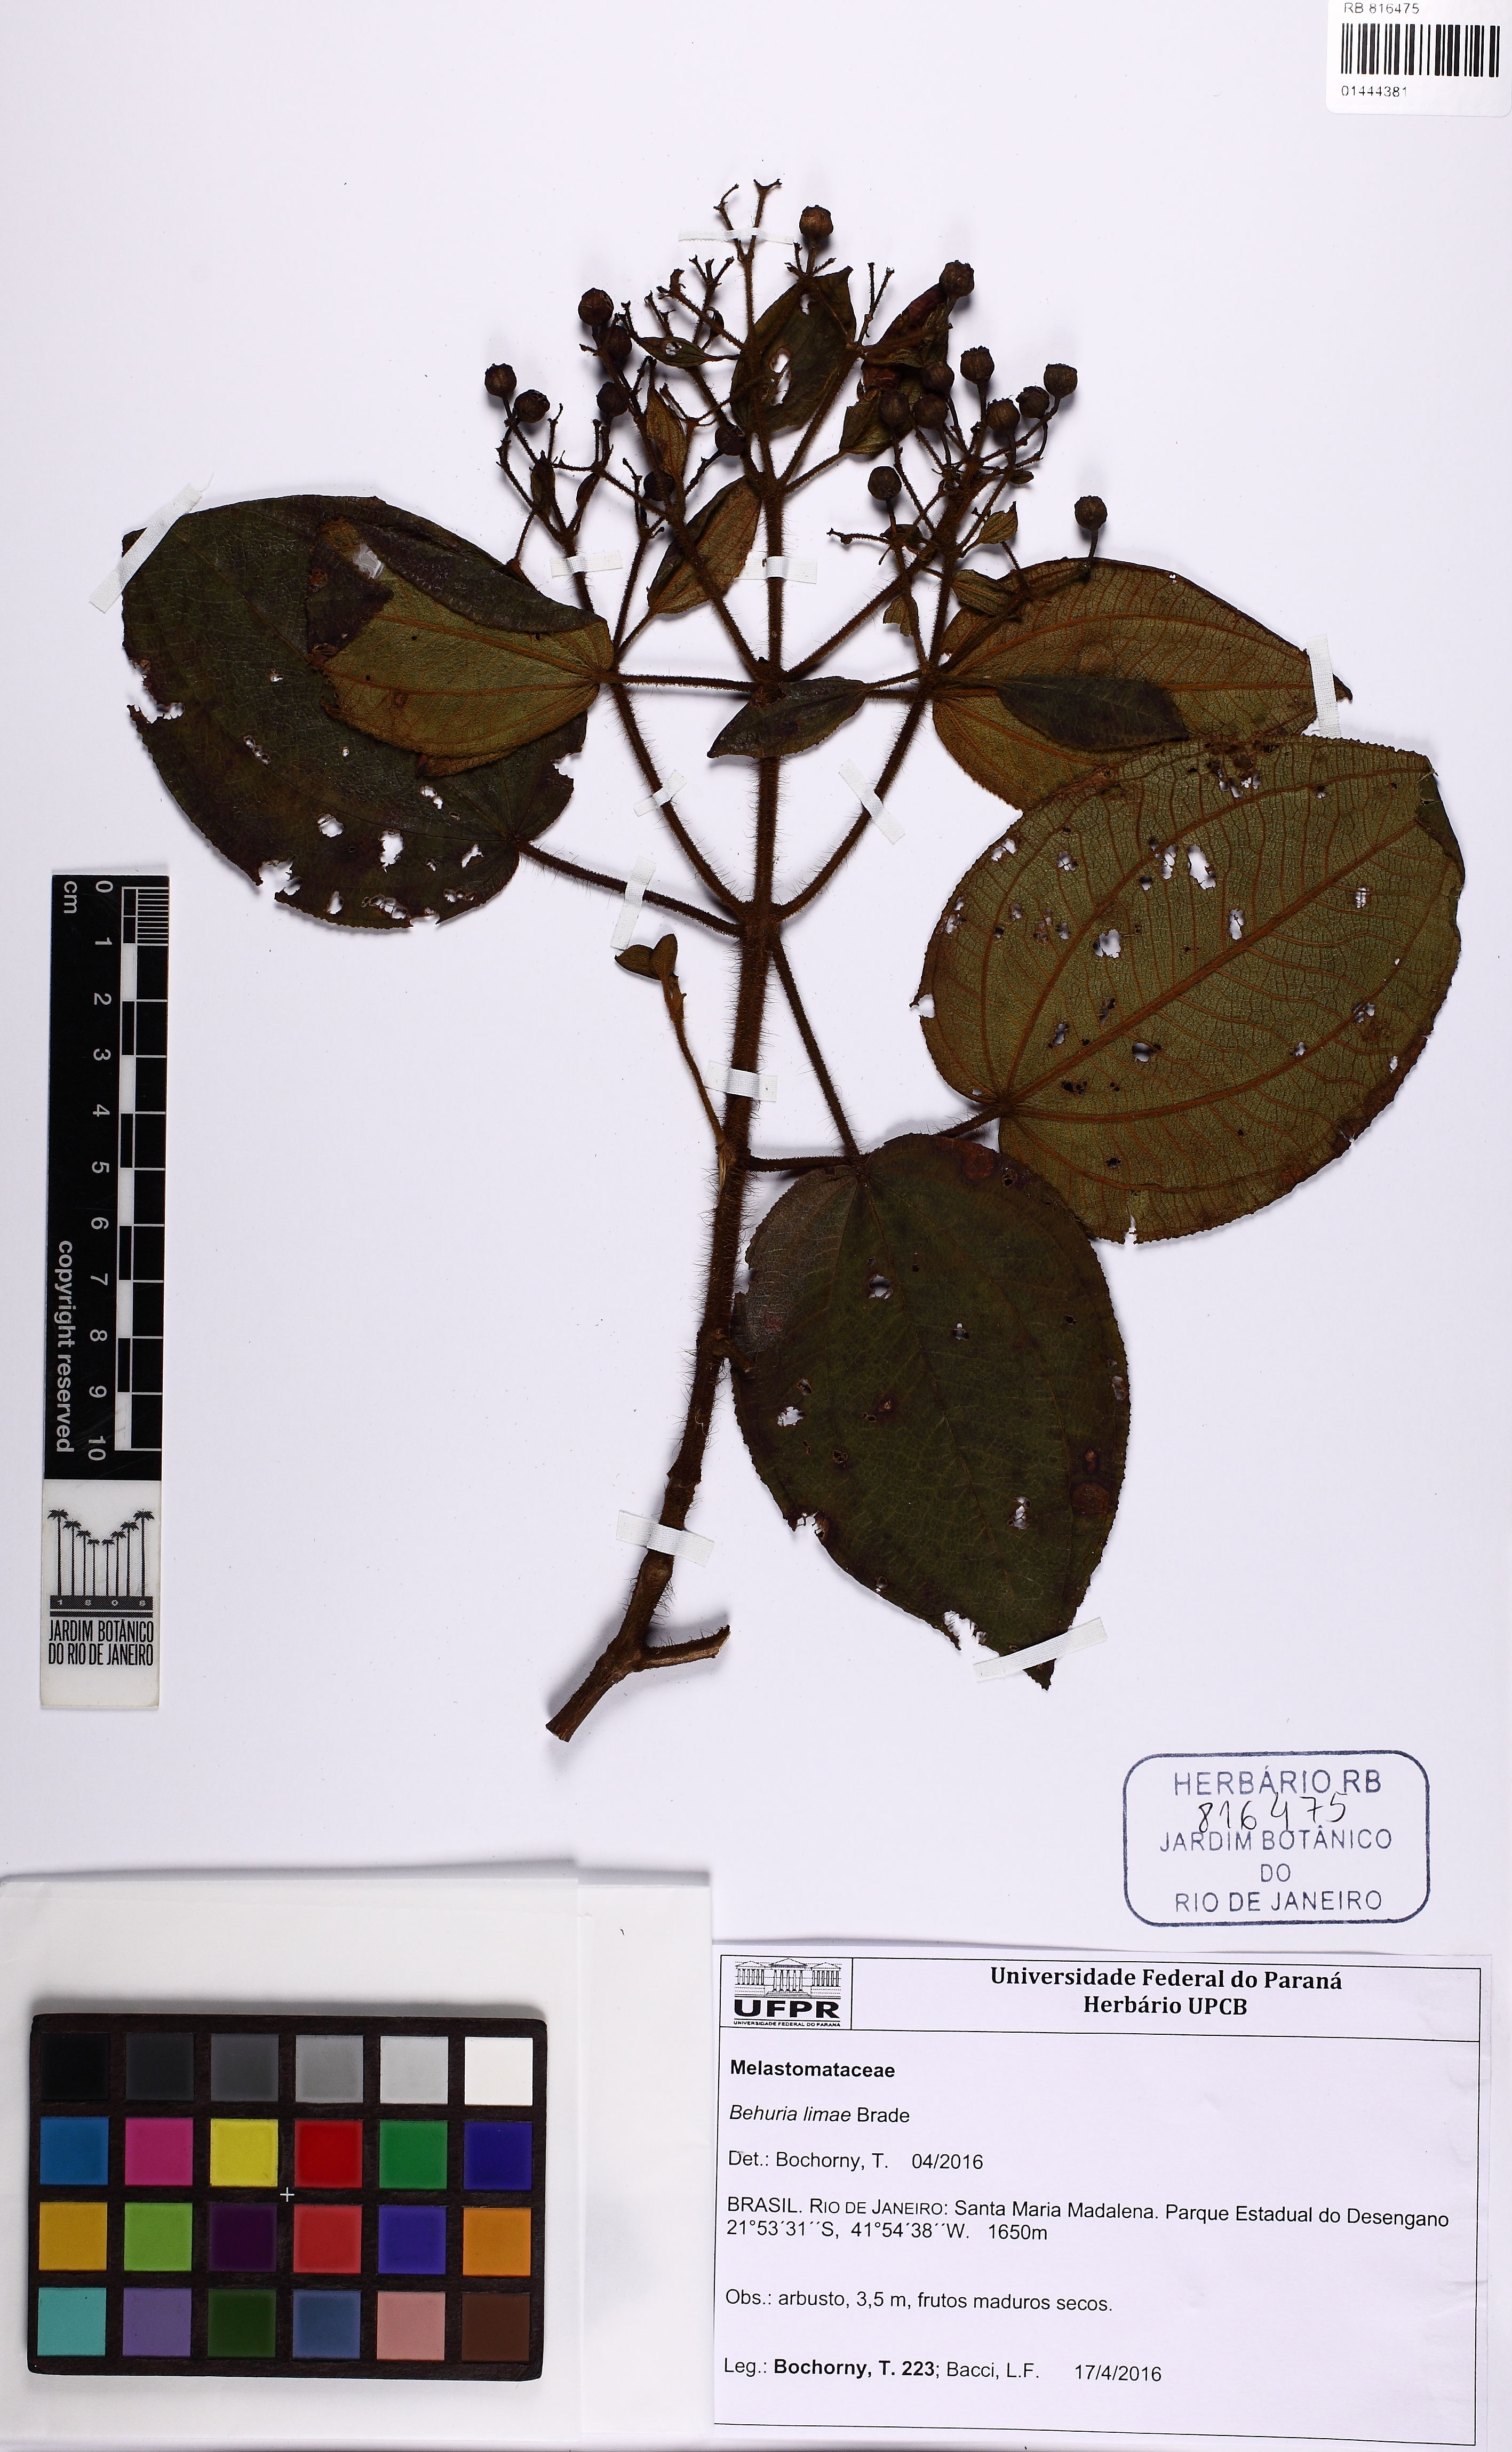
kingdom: Plantae
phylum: Tracheophyta
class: Magnoliopsida
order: Myrtales
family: Melastomataceae
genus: Huberia
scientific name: Huberia limae
